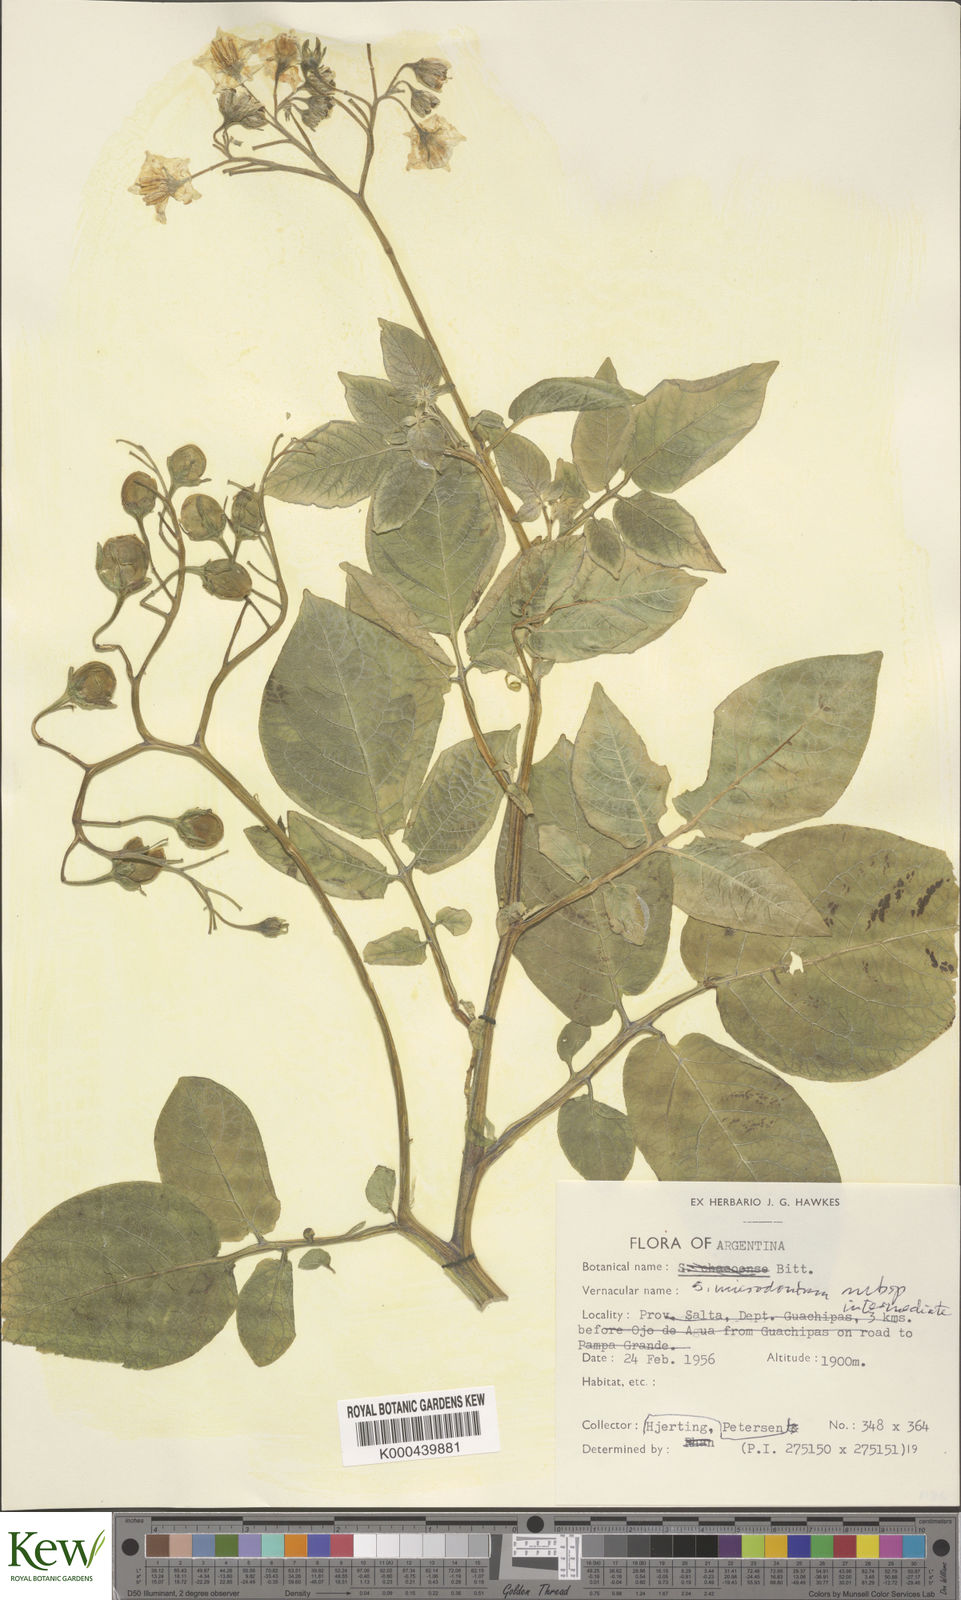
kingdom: Plantae
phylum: Tracheophyta
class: Magnoliopsida
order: Solanales
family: Solanaceae
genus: Solanum
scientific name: Solanum microdontum
